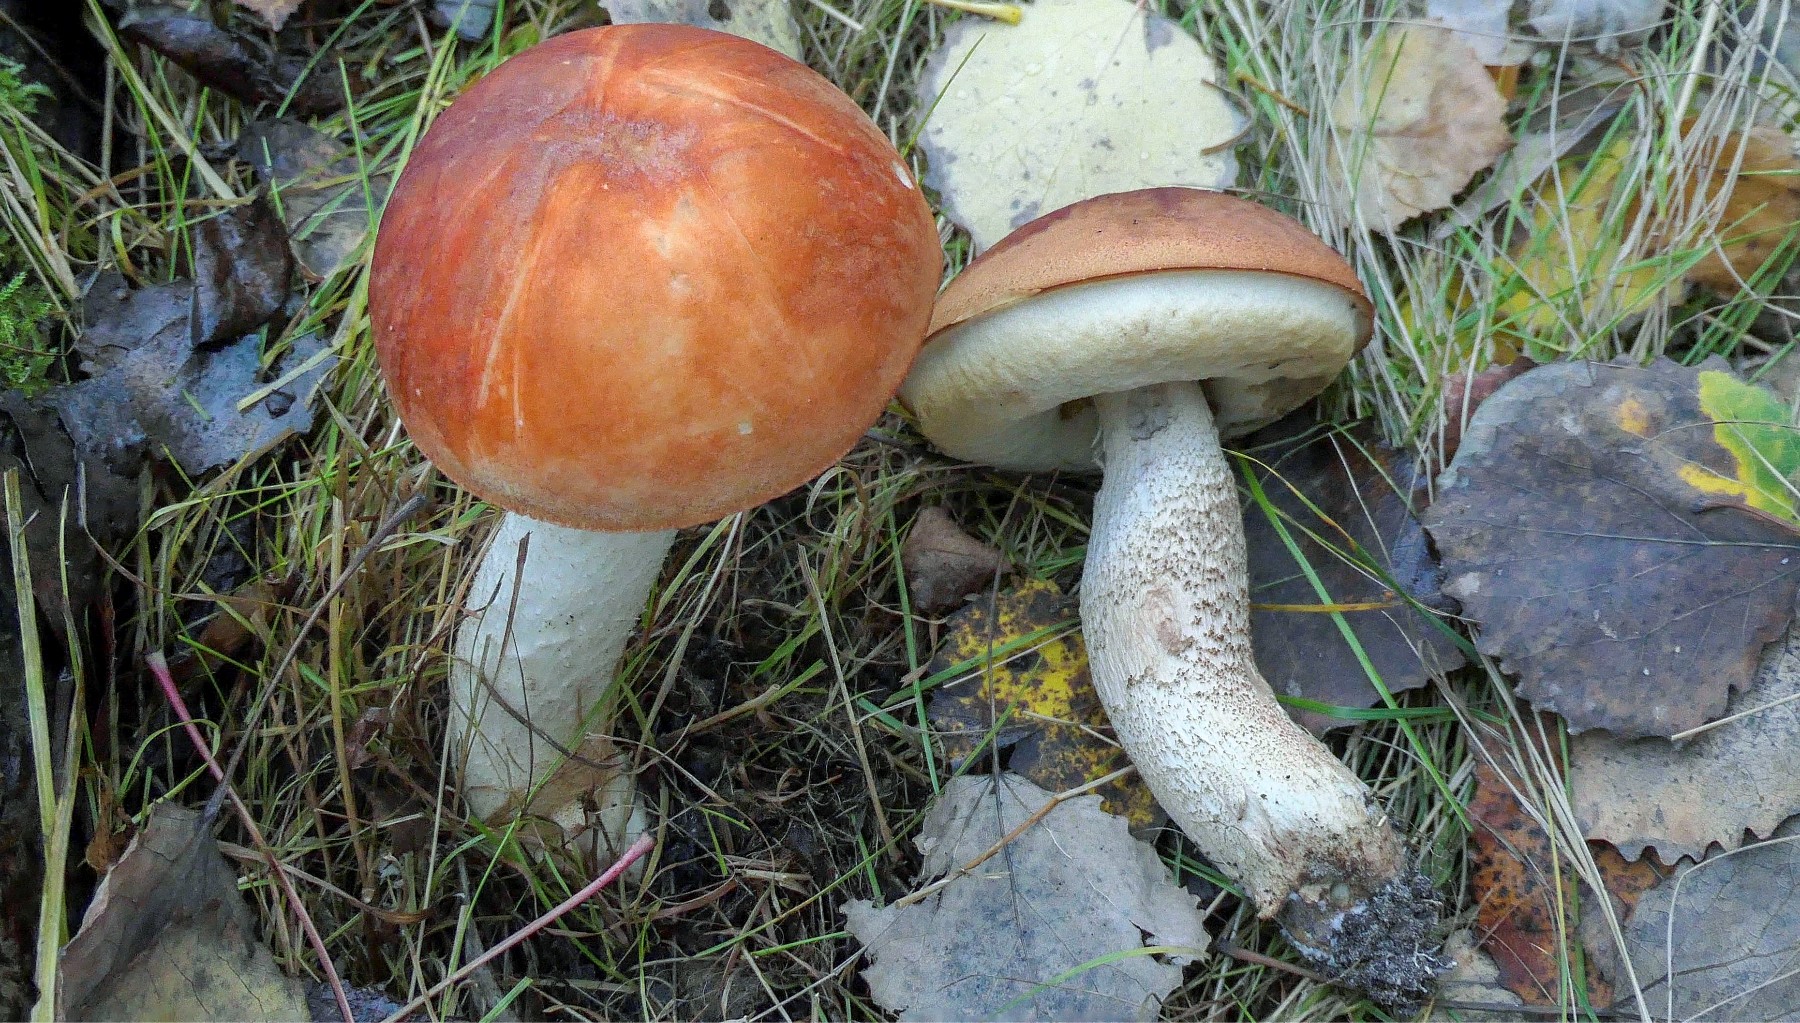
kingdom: Fungi
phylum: Basidiomycota
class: Agaricomycetes
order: Boletales
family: Boletaceae
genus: Leccinum
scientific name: Leccinum albostipitatum
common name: aspe-skælrørhat
